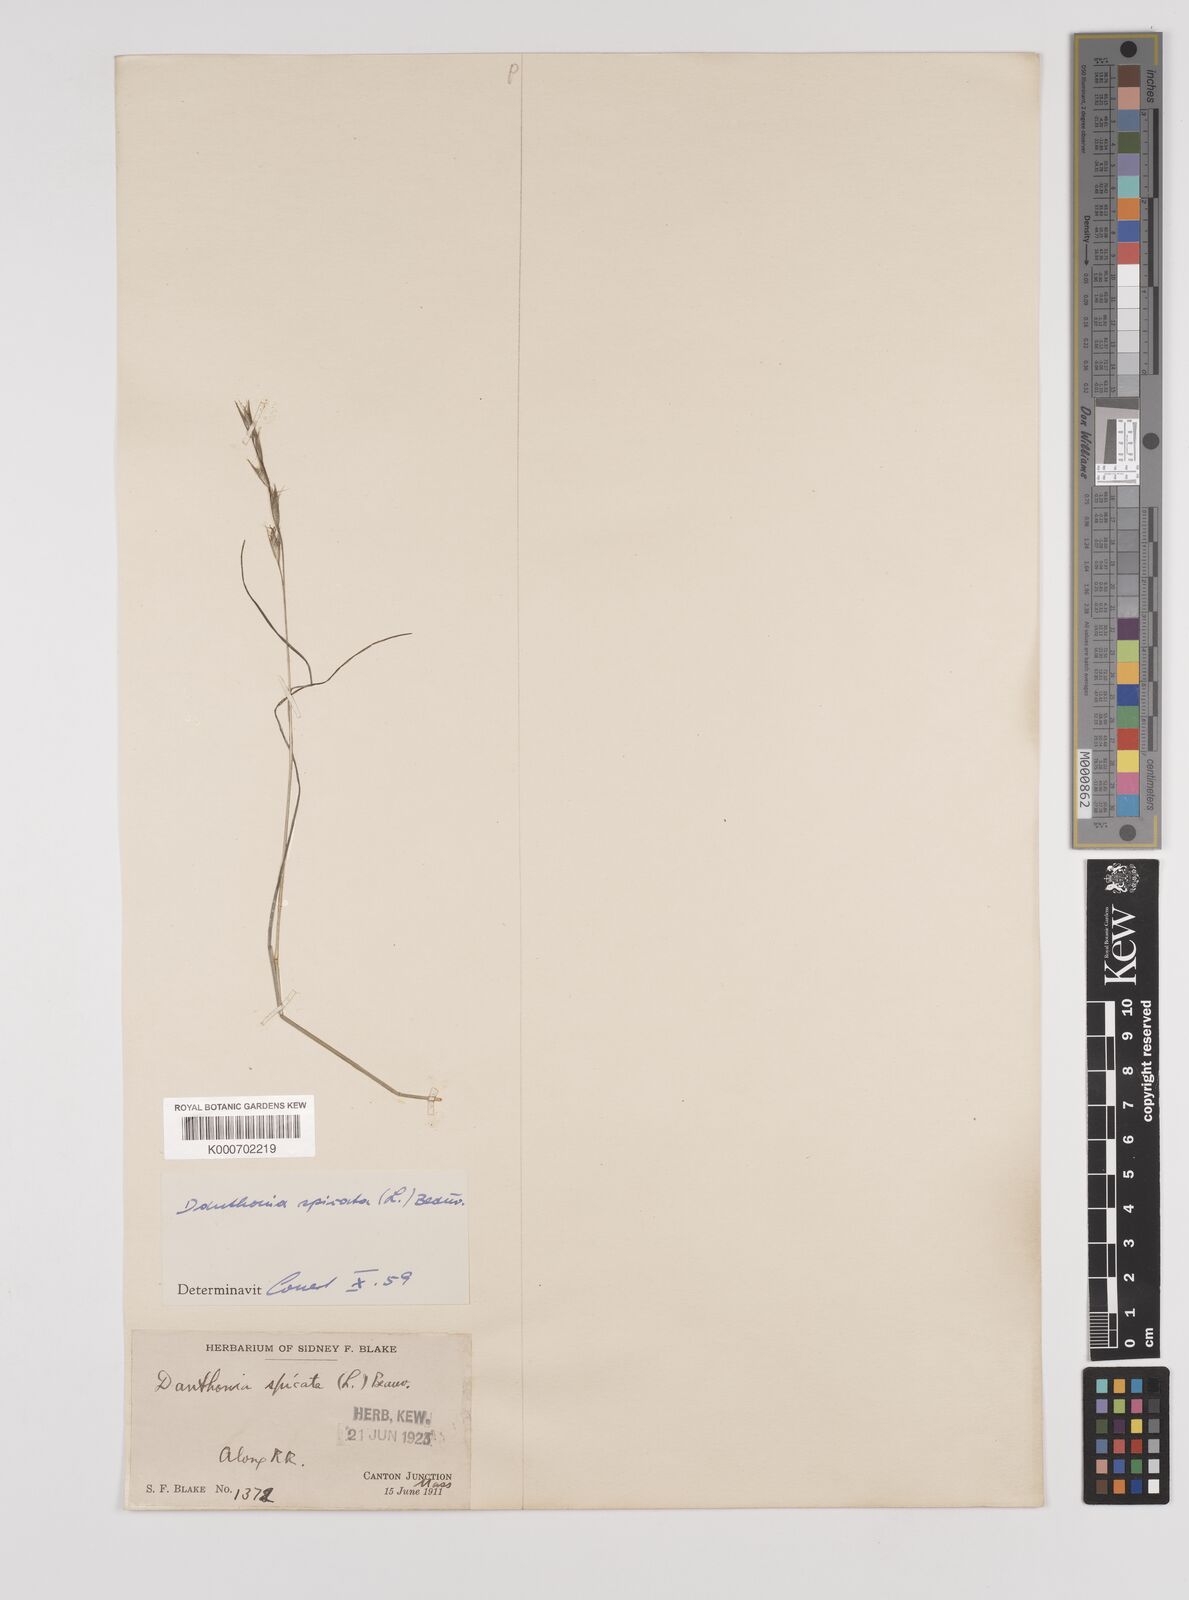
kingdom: Plantae
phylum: Tracheophyta
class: Liliopsida
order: Poales
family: Poaceae
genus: Danthonia
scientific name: Danthonia spicata
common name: Common wild oatgrass
